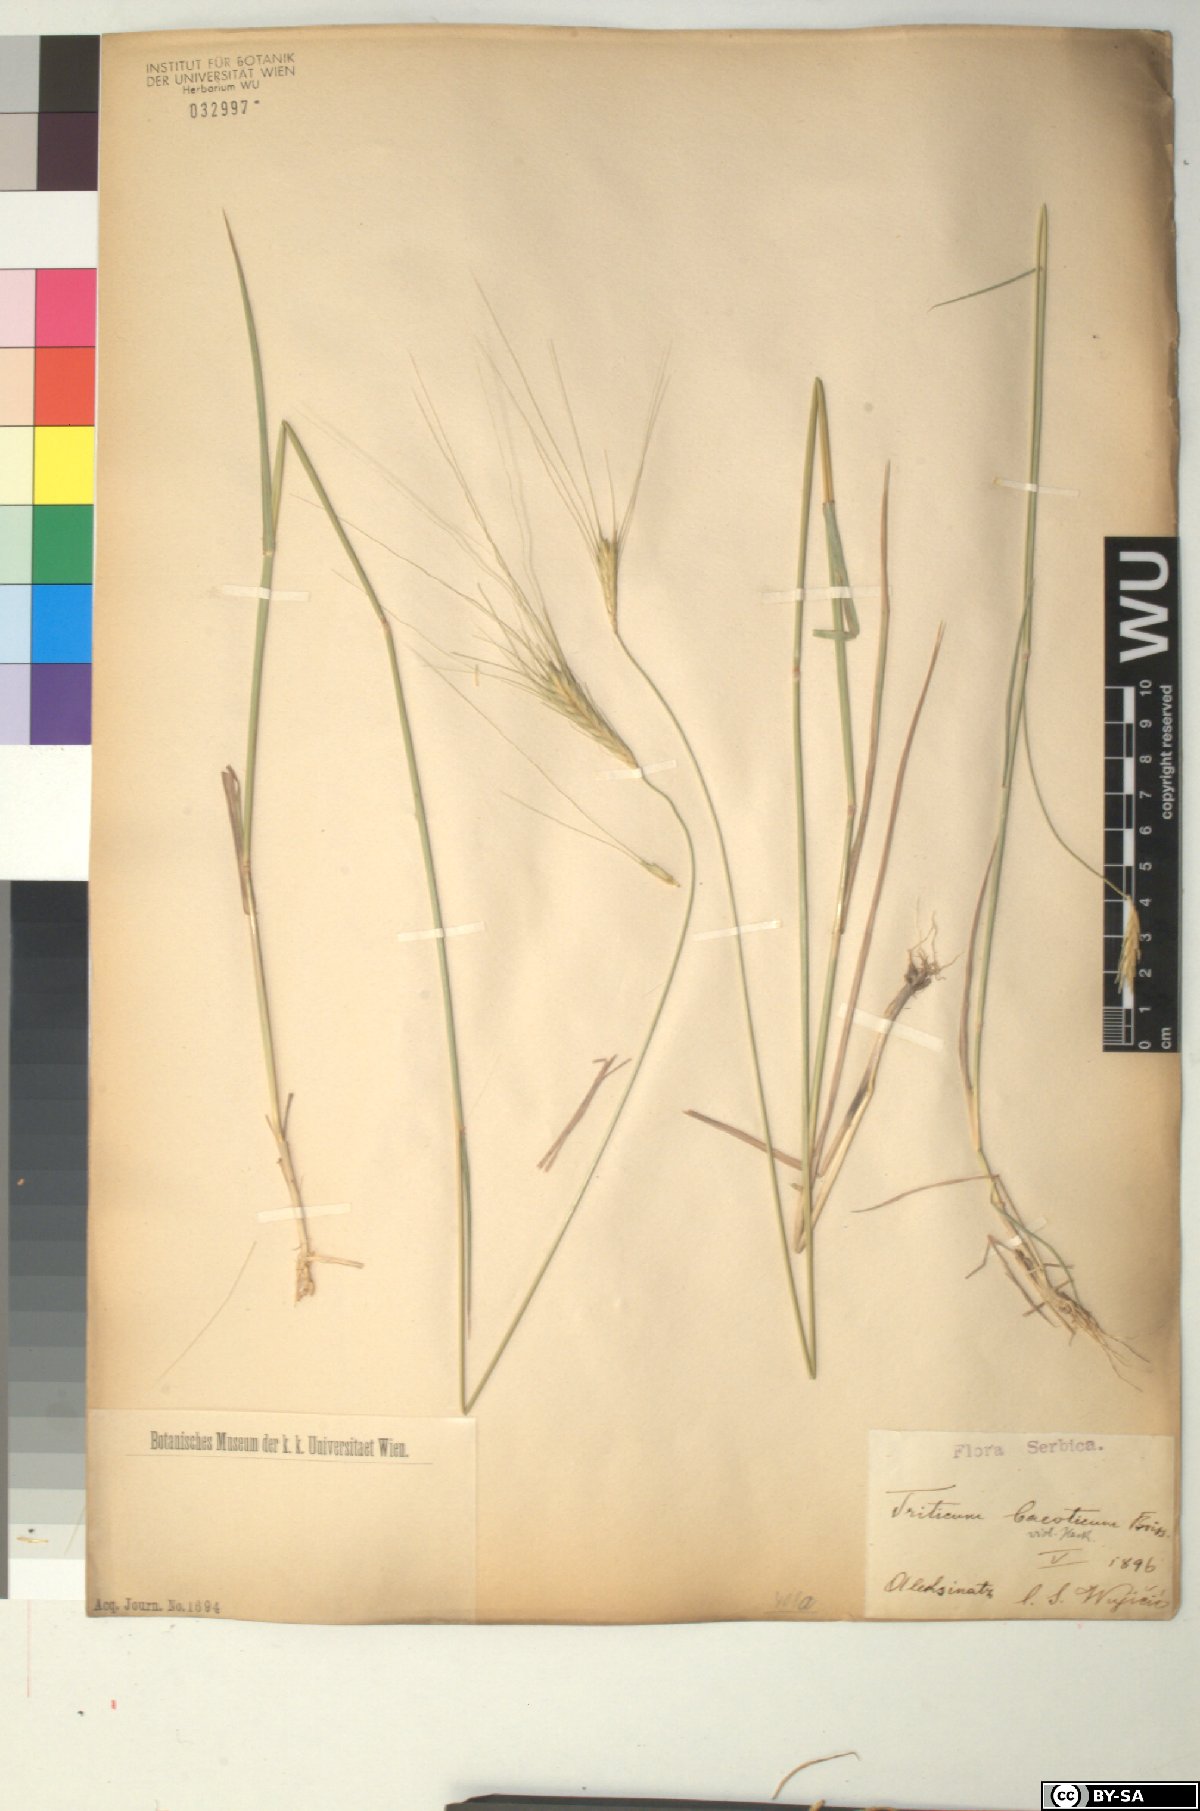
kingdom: Plantae
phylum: Tracheophyta
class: Liliopsida
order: Poales
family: Poaceae
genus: Triticum
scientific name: Triticum monococcum
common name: Einkorn
